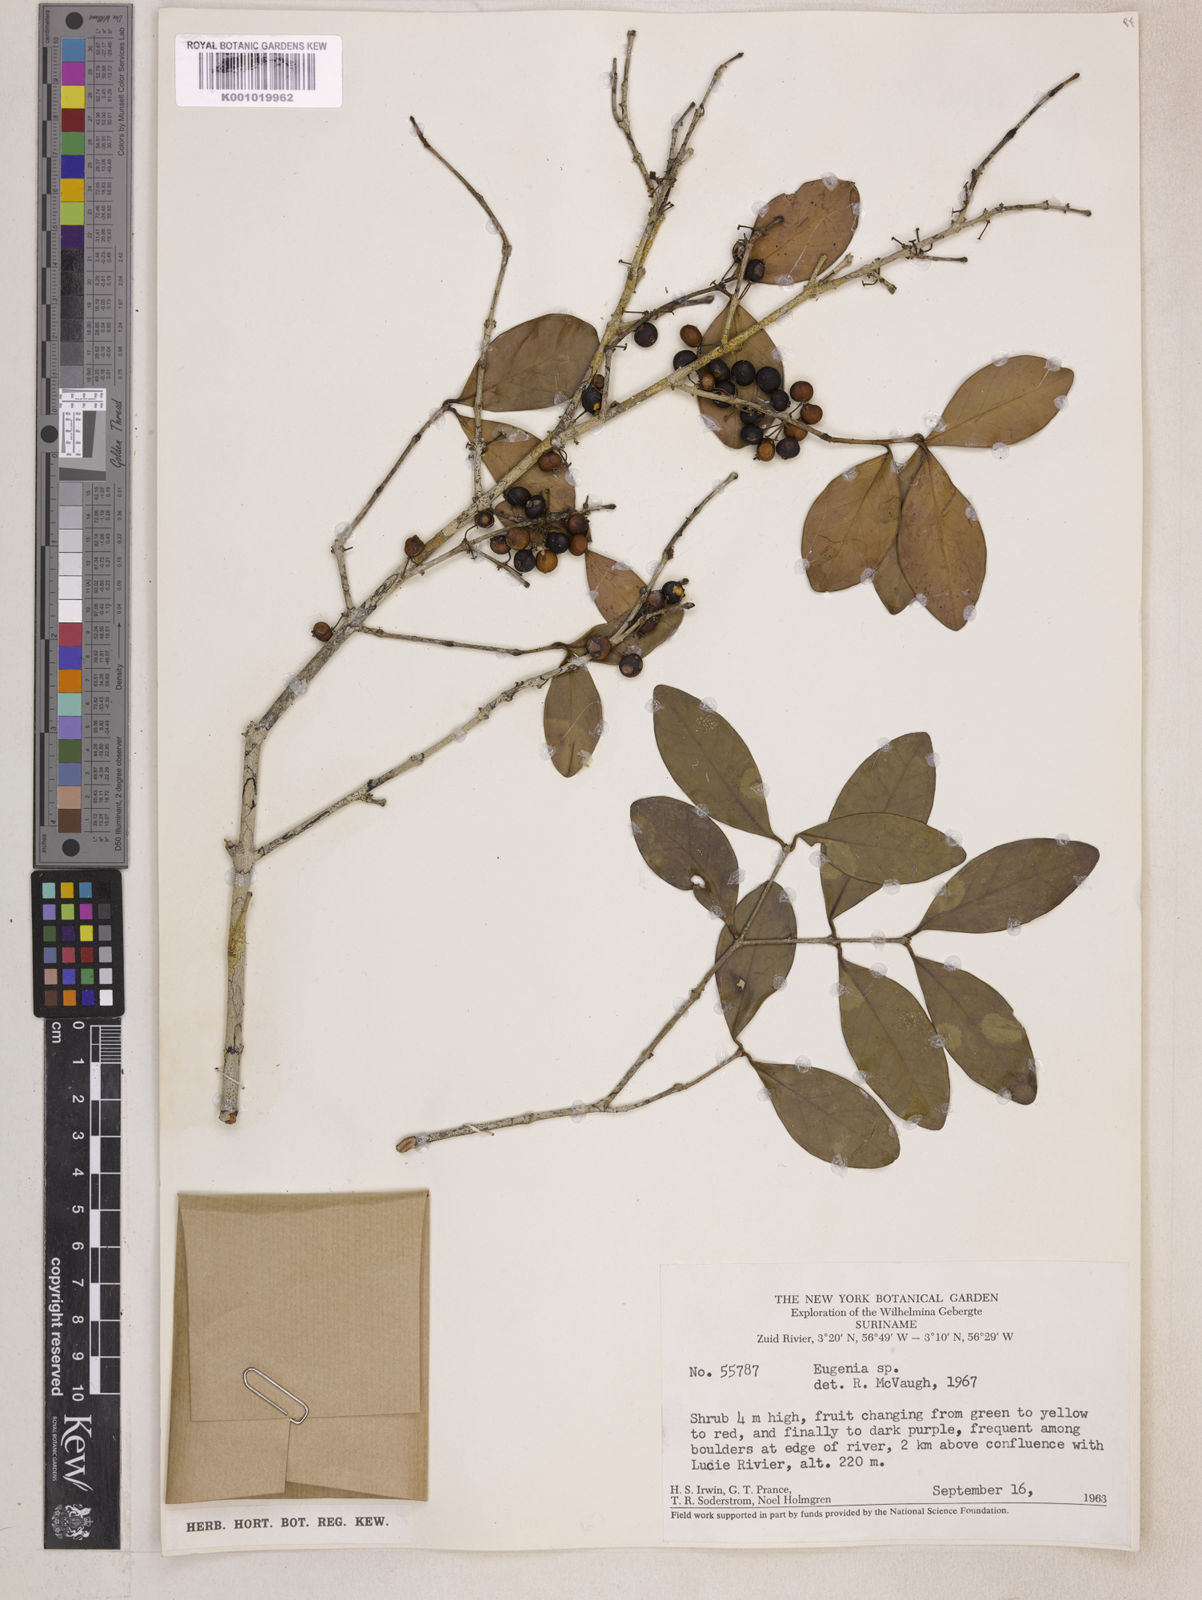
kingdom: Plantae
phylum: Tracheophyta
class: Magnoliopsida
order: Myrtales
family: Myrtaceae
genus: Eugenia
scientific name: Eugenia punicifolia
